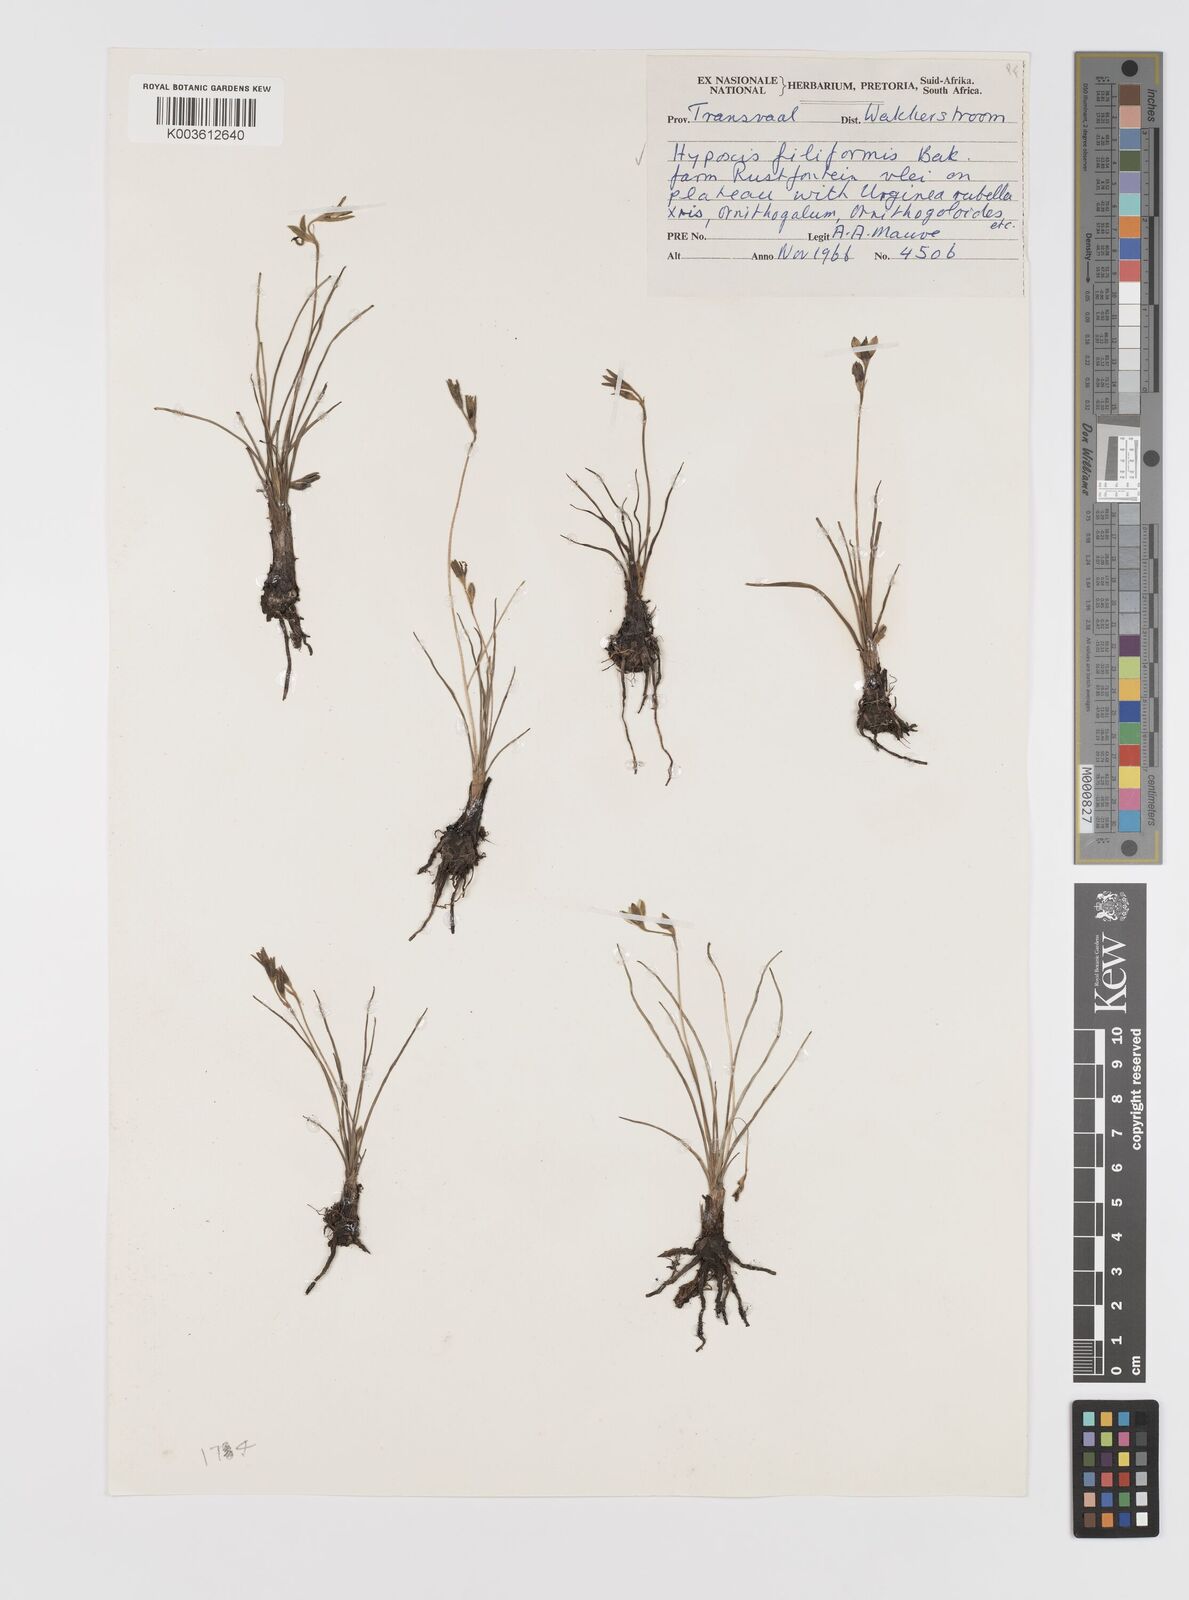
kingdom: Plantae
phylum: Tracheophyta
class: Liliopsida
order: Asparagales
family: Hypoxidaceae
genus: Hypoxis
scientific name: Hypoxis filiformis
